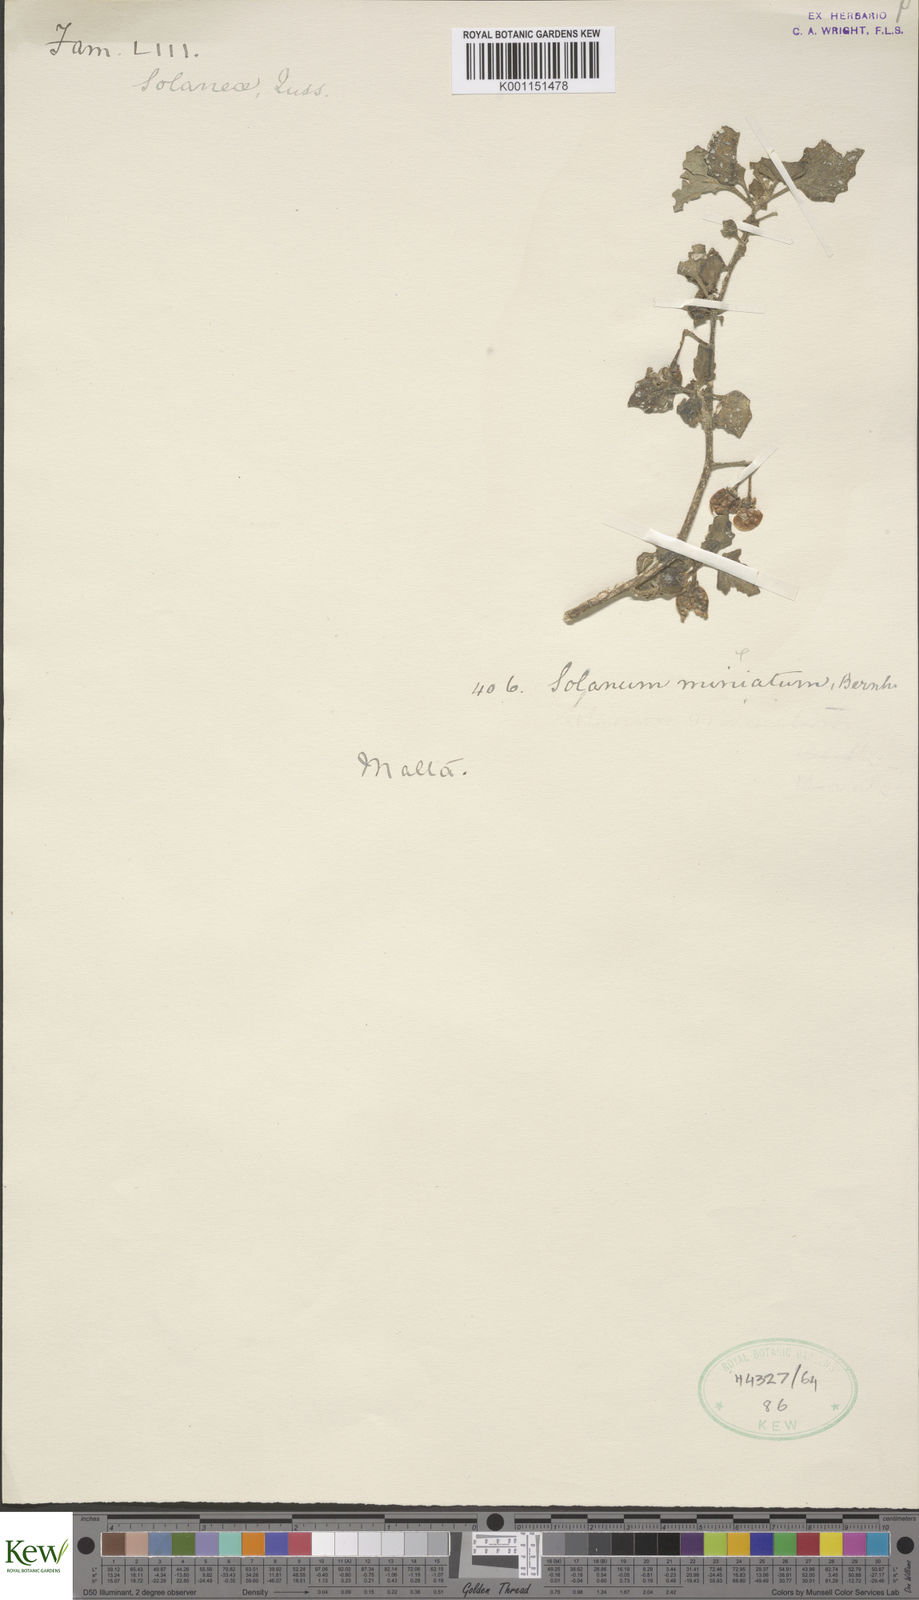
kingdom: Plantae
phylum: Tracheophyta
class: Magnoliopsida
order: Solanales
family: Solanaceae
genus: Solanum
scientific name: Solanum villosum
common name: Red nightshade
